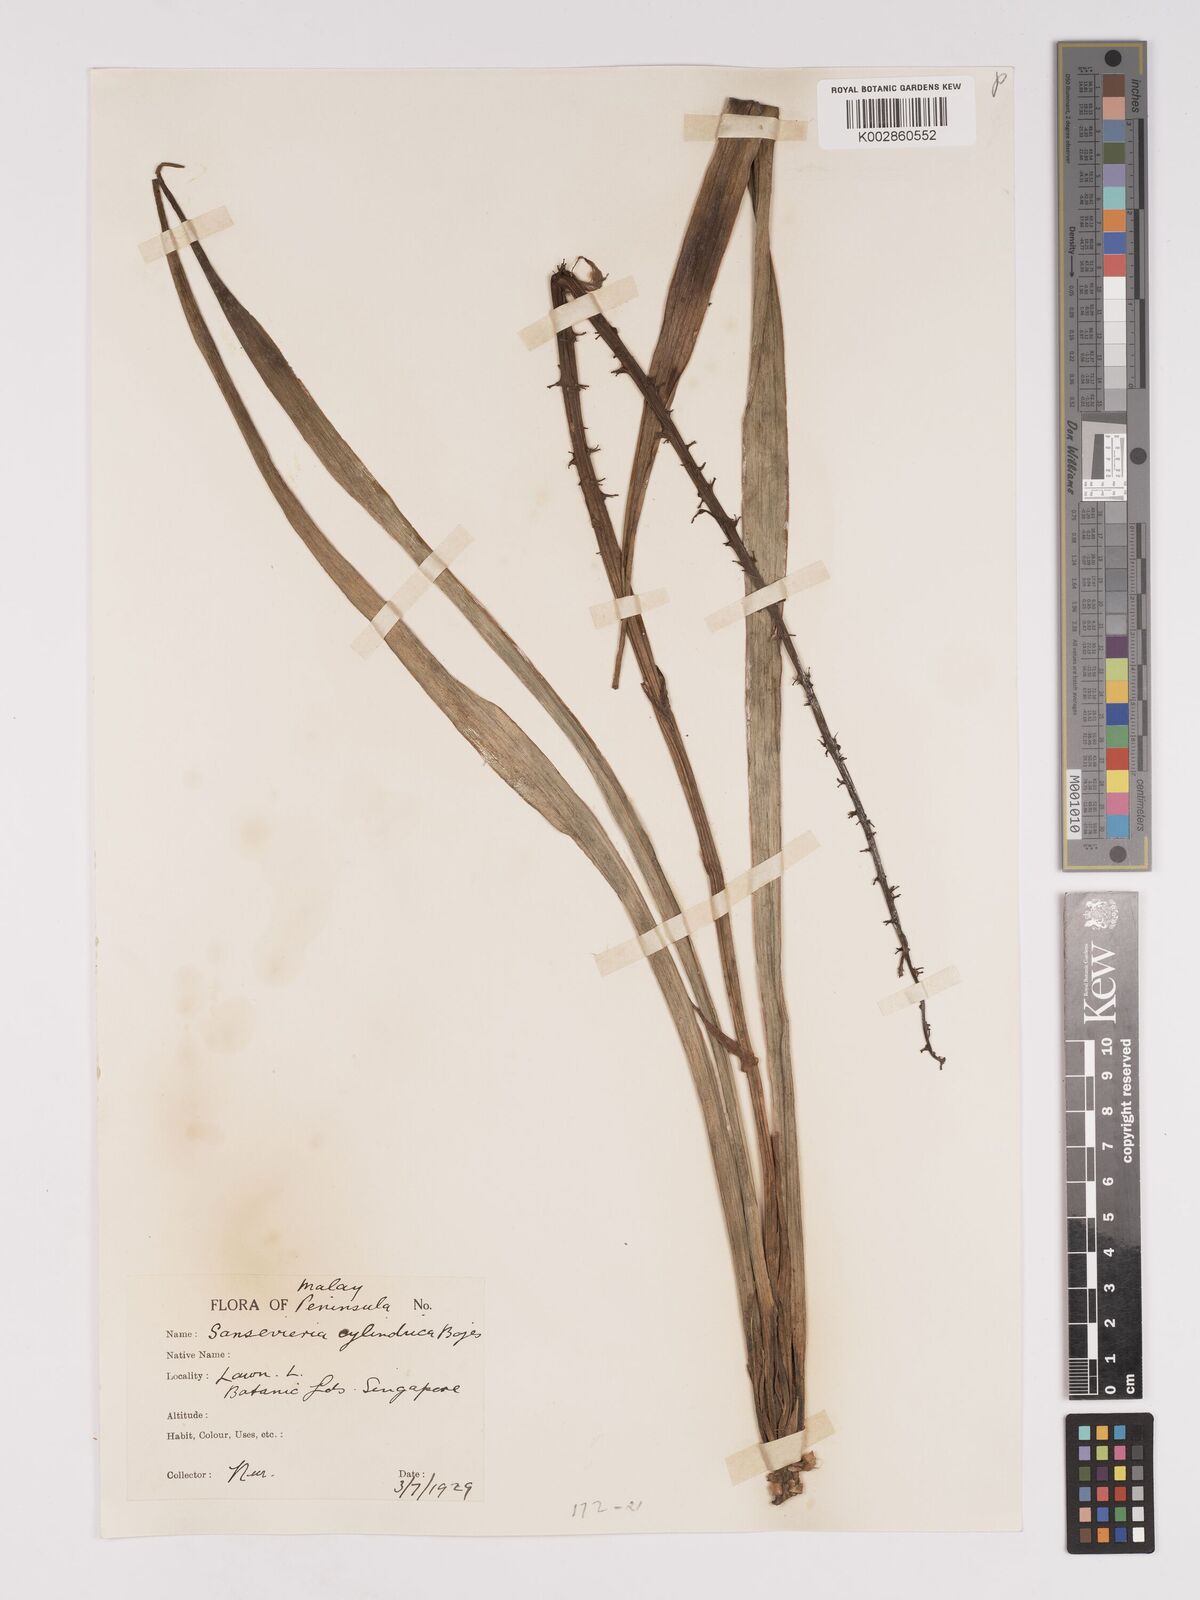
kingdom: Plantae
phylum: Tracheophyta
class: Liliopsida
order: Asparagales
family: Asparagaceae
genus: Dracaena
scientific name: Dracaena
